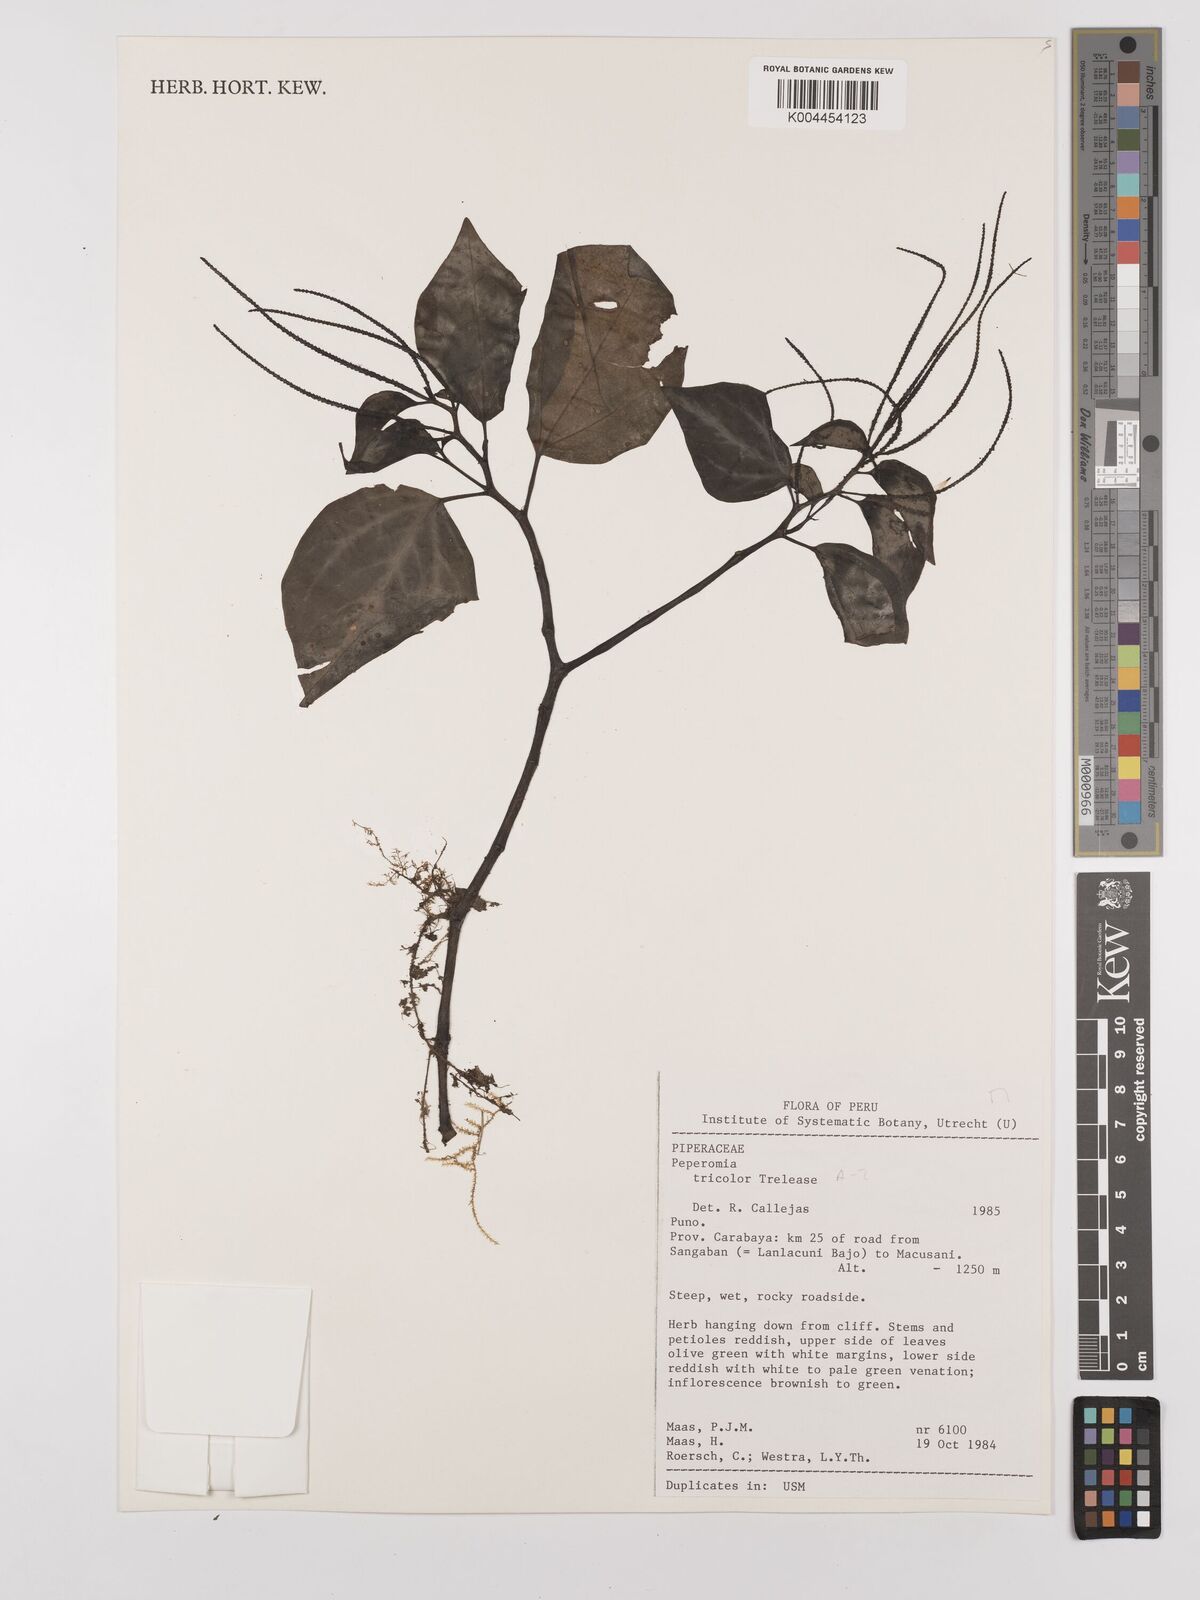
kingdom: Plantae
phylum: Tracheophyta
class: Magnoliopsida
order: Piperales
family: Piperaceae
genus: Peperomia
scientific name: Peperomia tricolor
